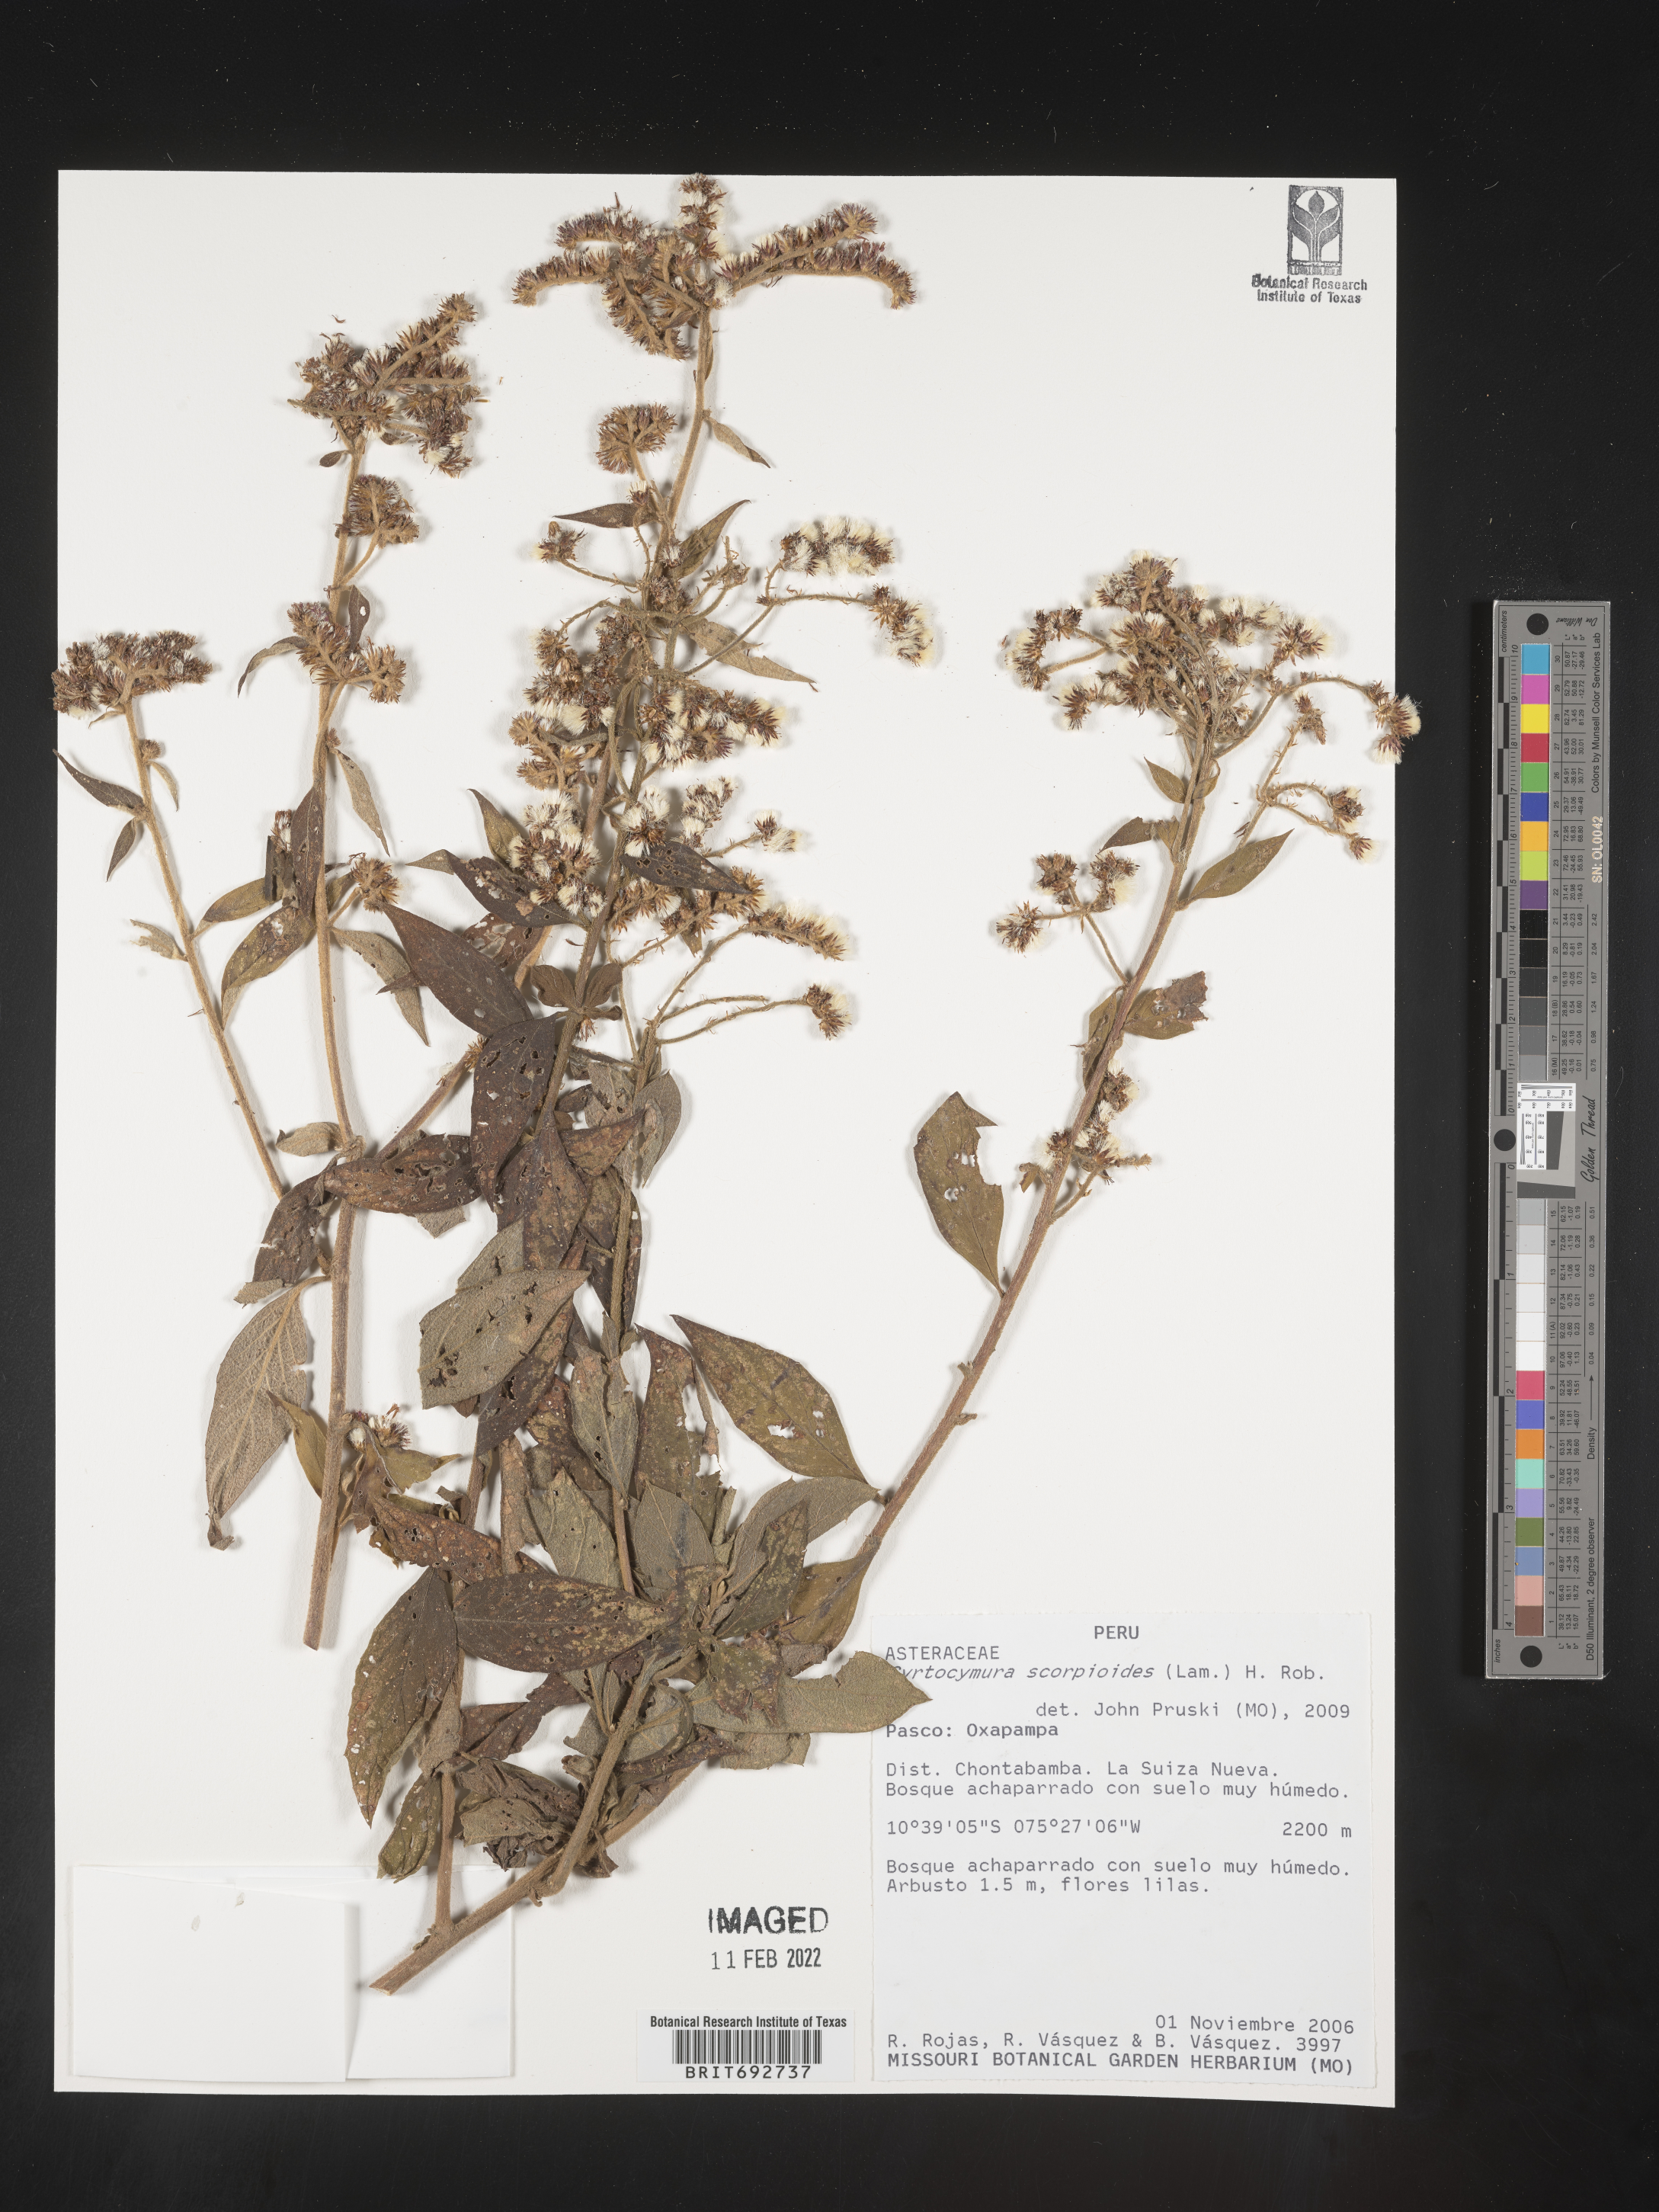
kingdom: Plantae
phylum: Tracheophyta
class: Magnoliopsida
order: Asterales
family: Asteraceae
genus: Cyrtocymura
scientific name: Cyrtocymura
